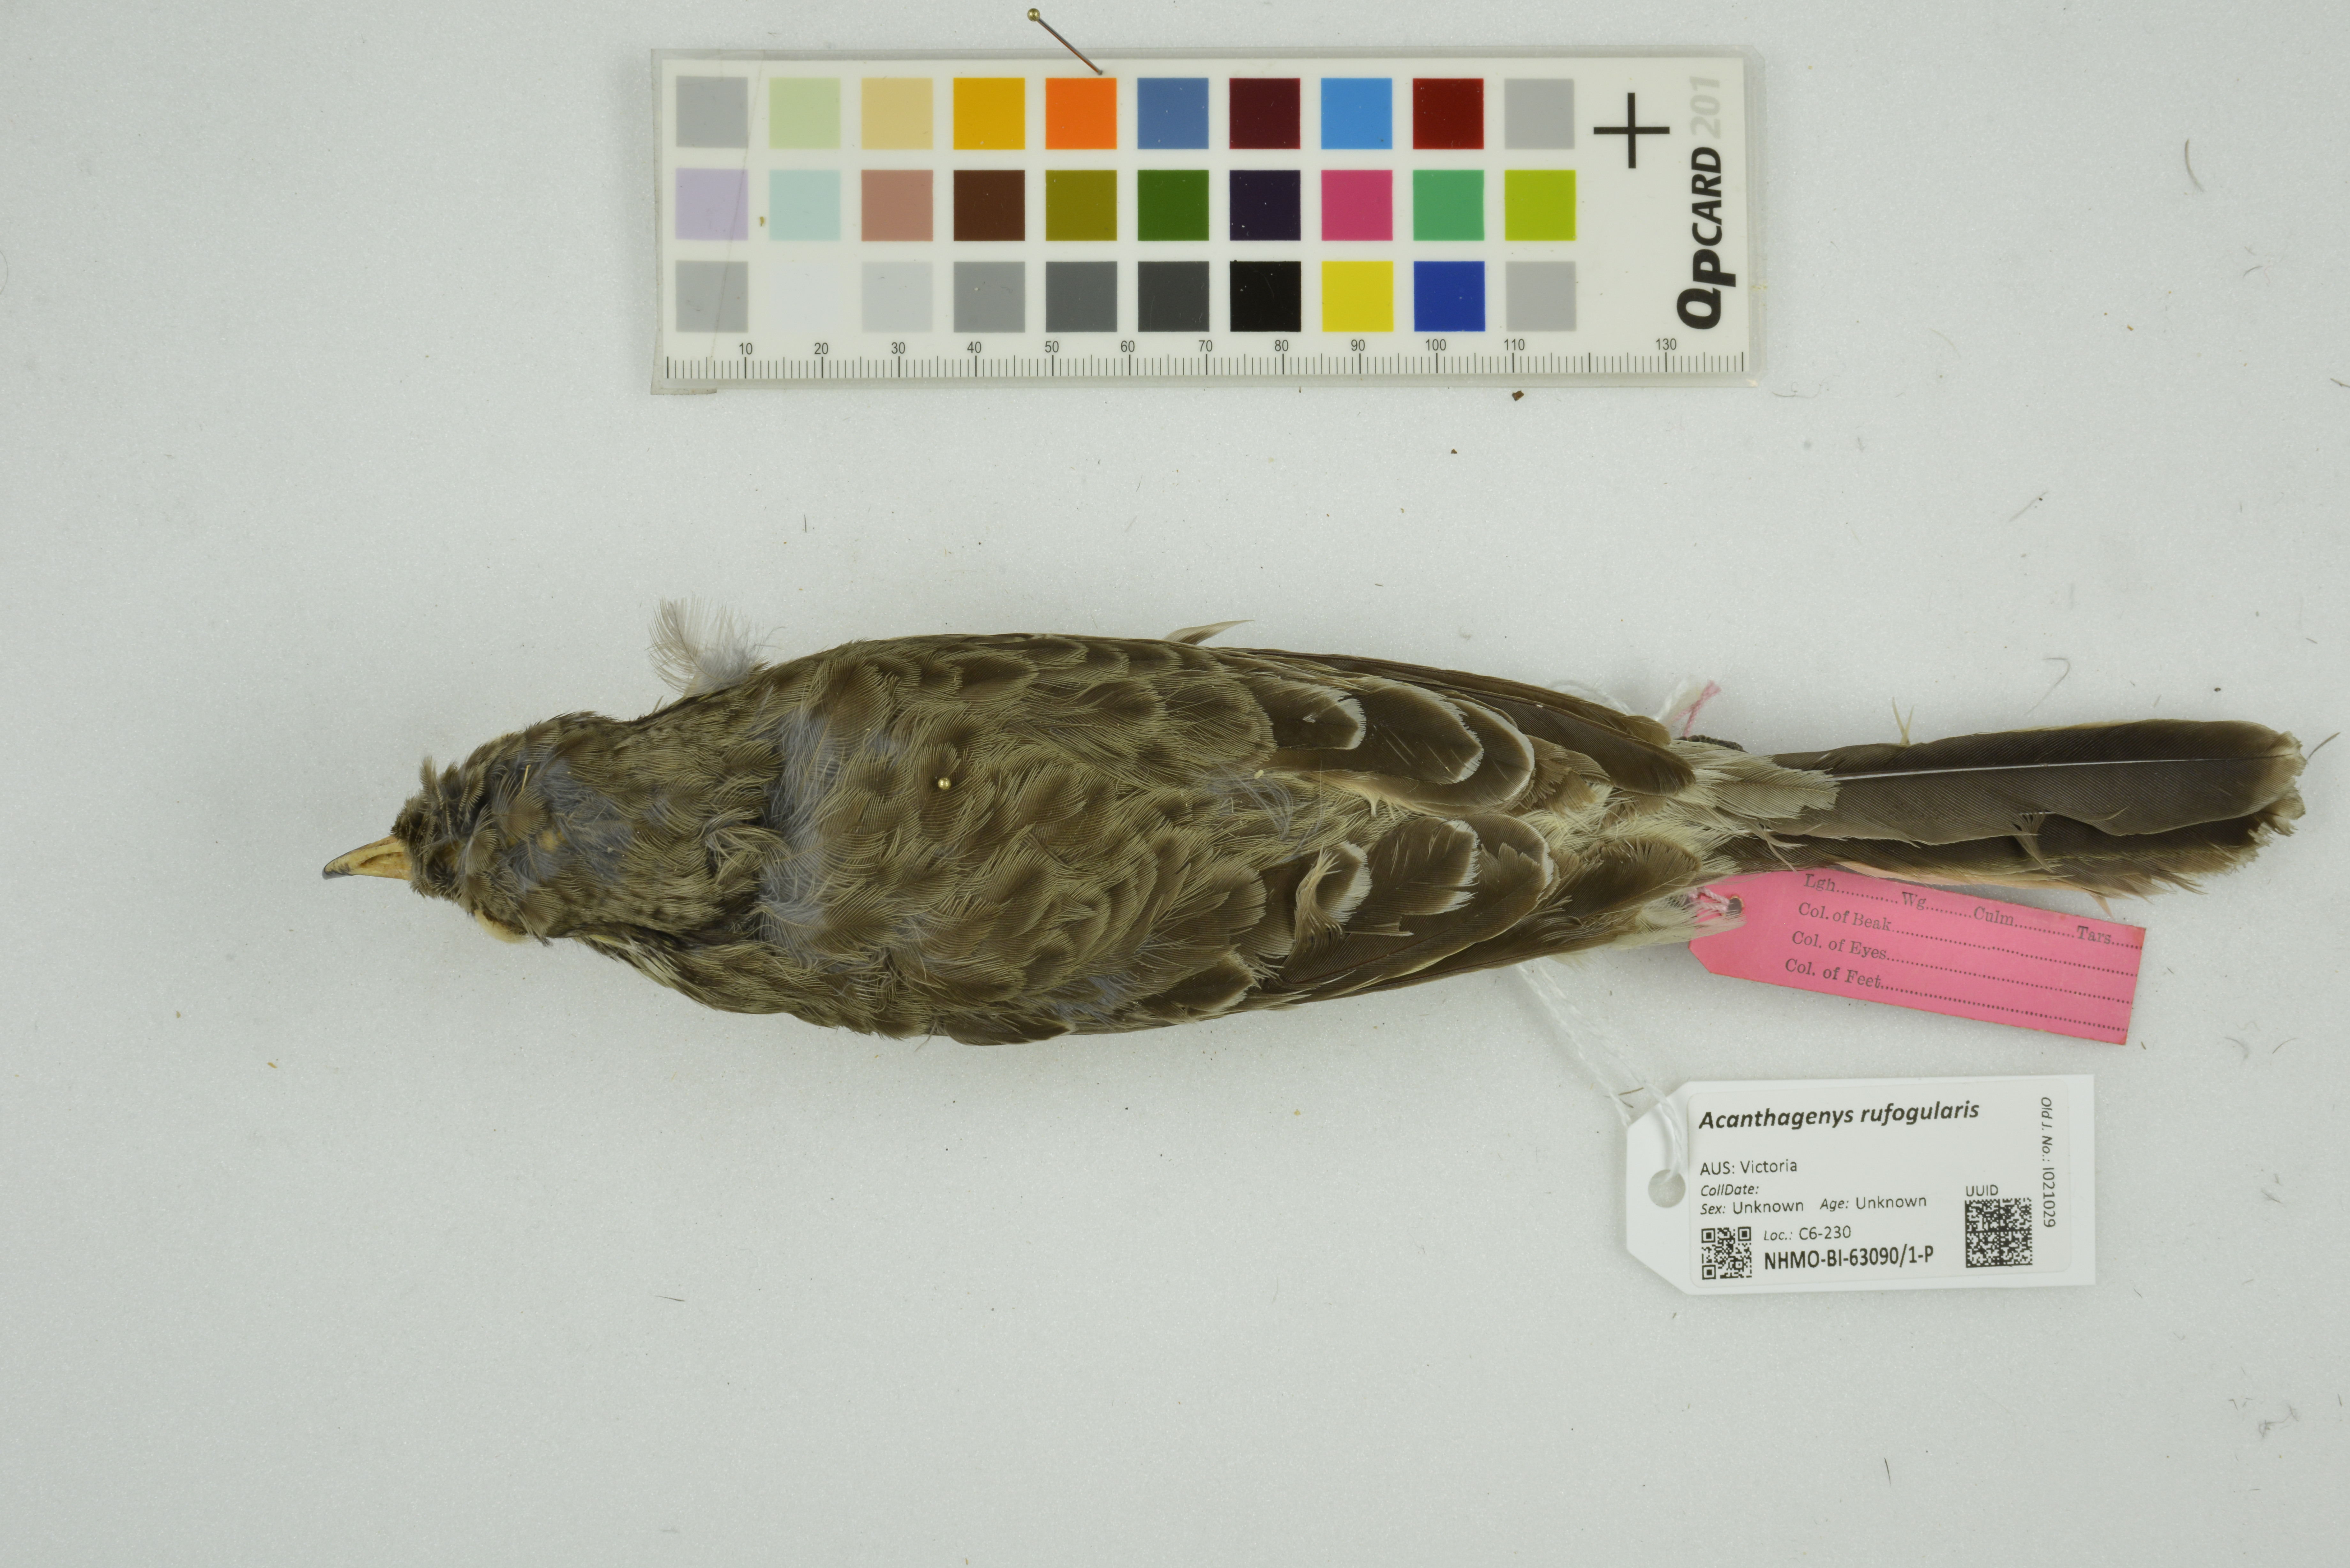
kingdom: Animalia
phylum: Chordata
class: Aves
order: Passeriformes
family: Meliphagidae
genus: Acanthagenys
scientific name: Acanthagenys rufogularis
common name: Spiny-cheeked honeyeater
